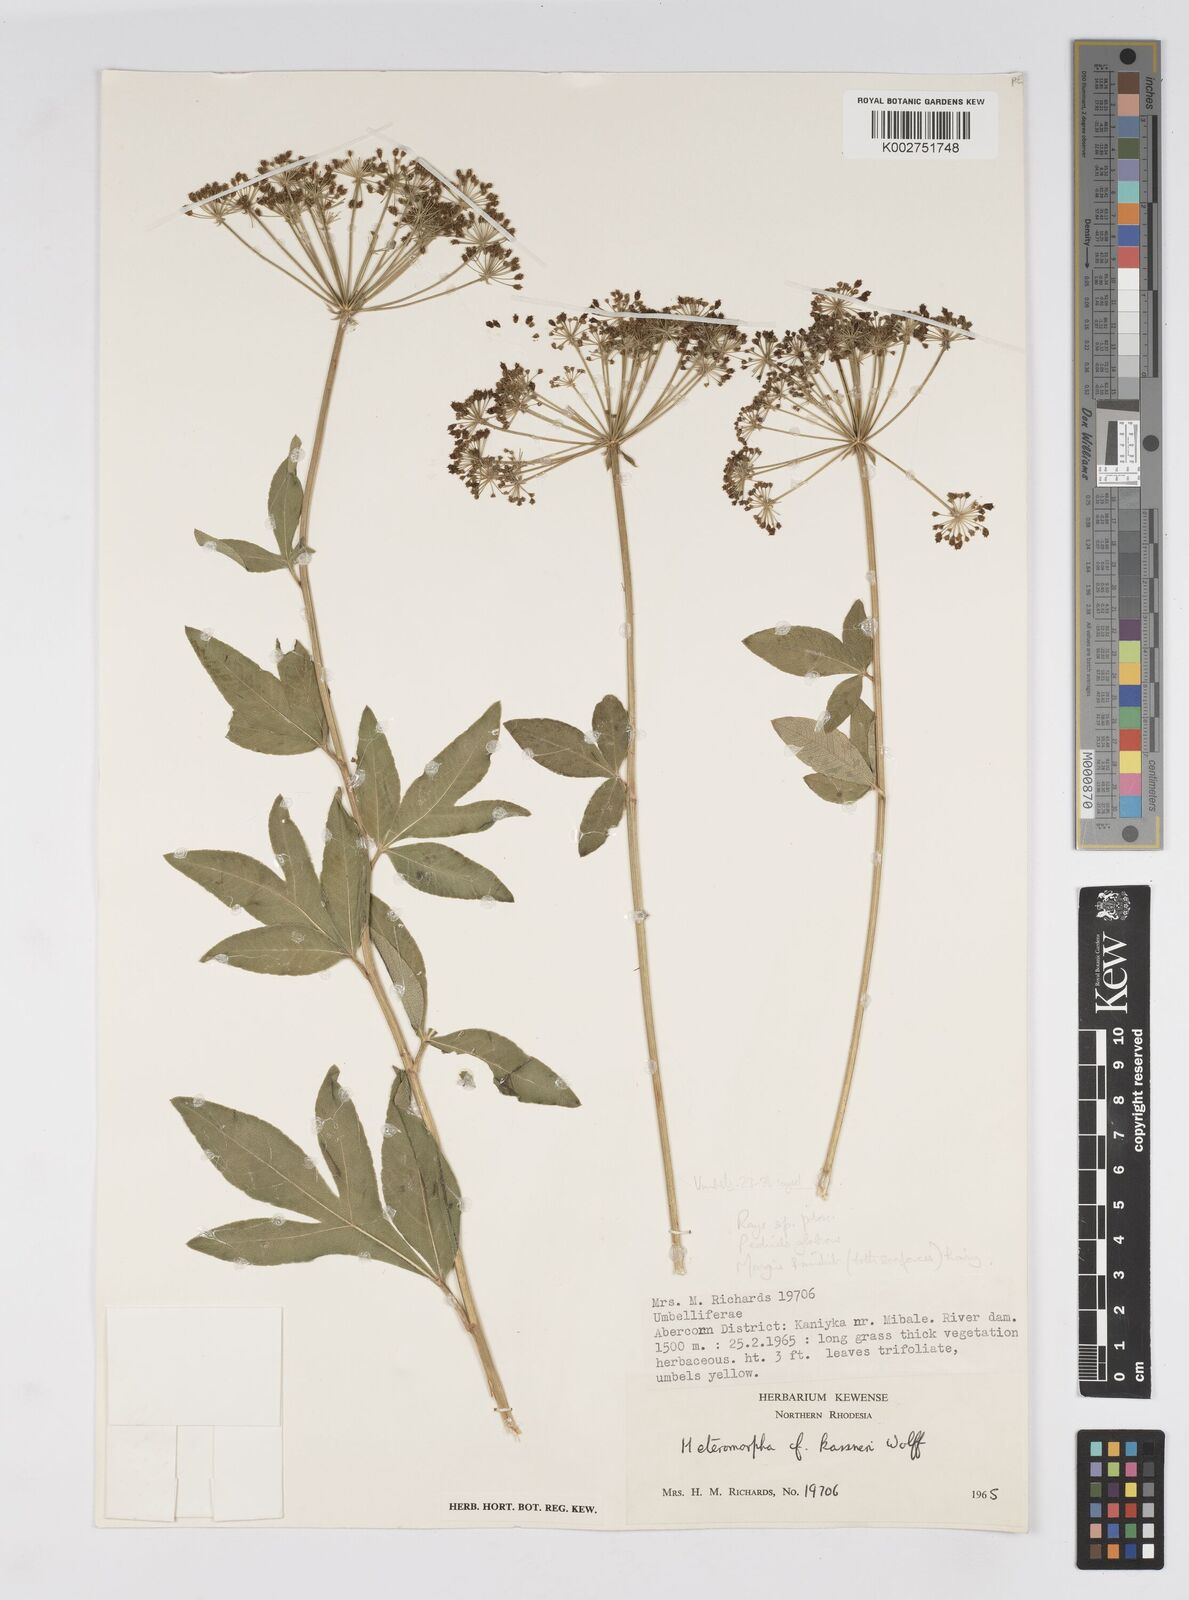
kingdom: Plantae
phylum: Tracheophyta
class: Magnoliopsida
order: Apiales
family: Apiaceae
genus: Heteromorpha
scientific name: Heteromorpha involucrata
